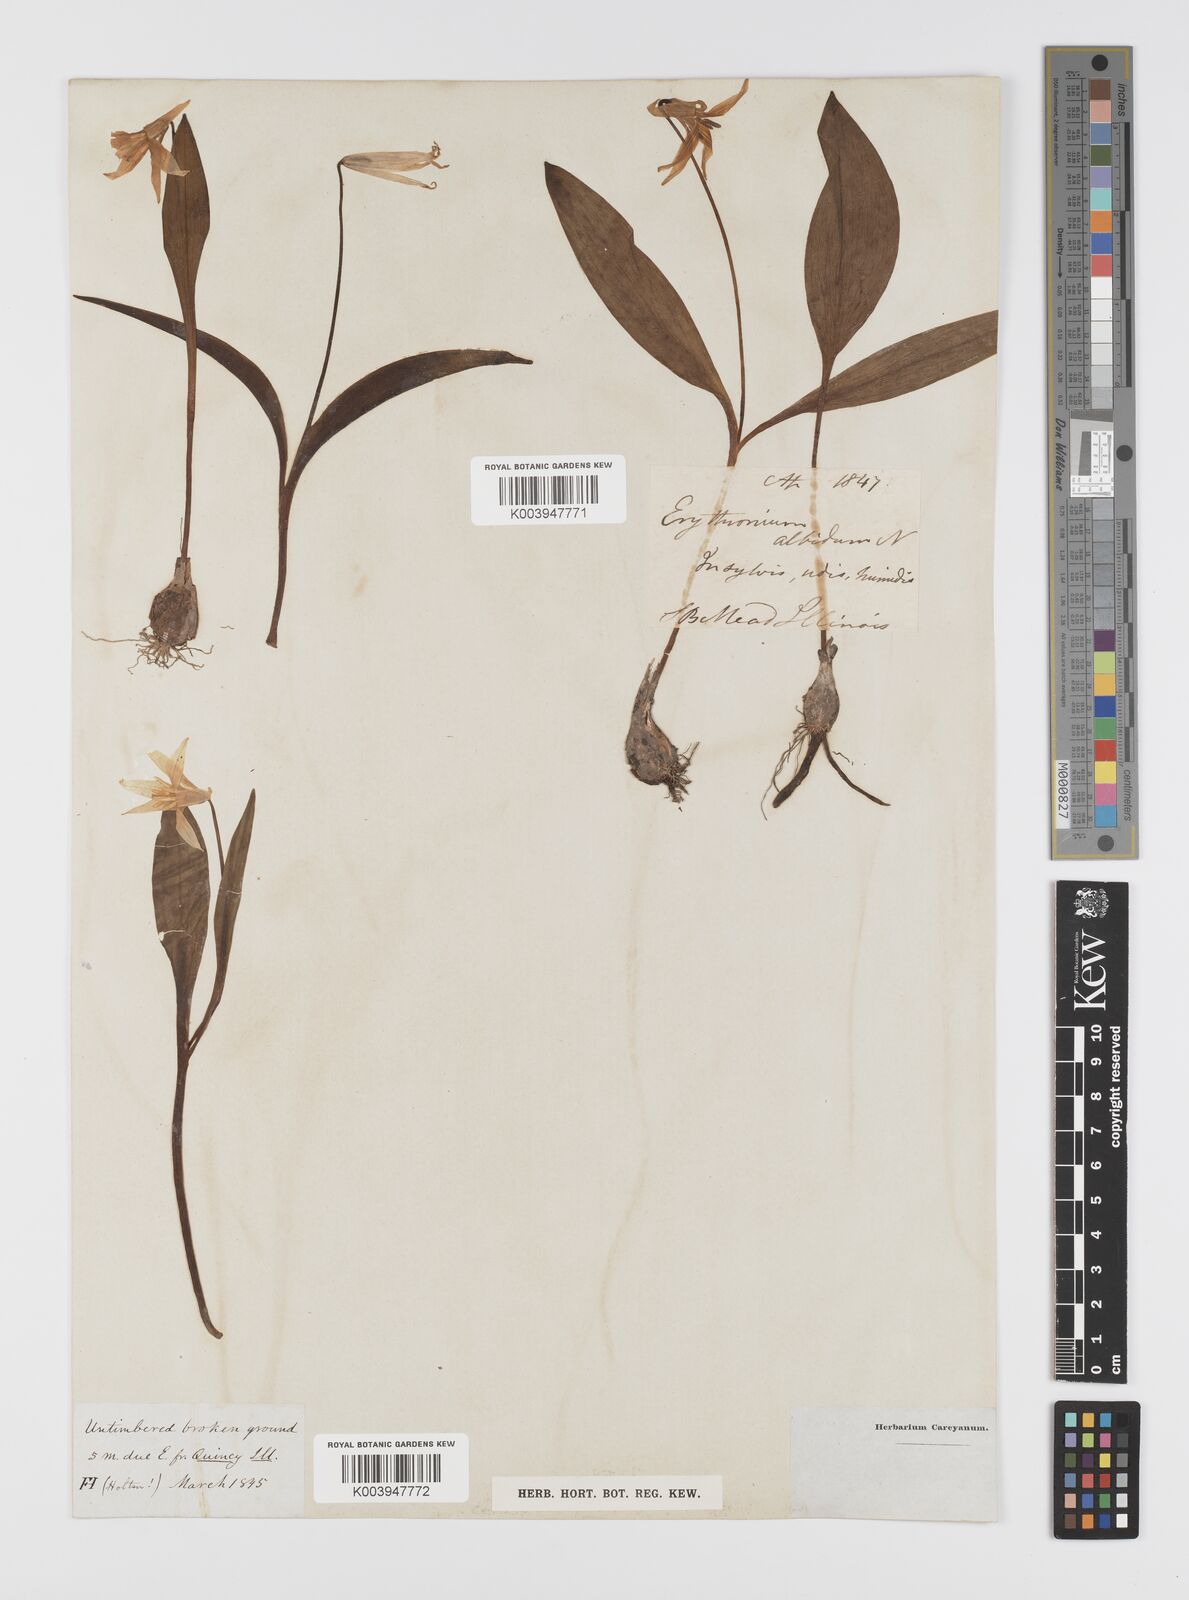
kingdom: Plantae
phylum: Tracheophyta
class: Liliopsida
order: Liliales
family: Liliaceae
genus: Erythronium
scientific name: Erythronium albidum
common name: White trout-lily
